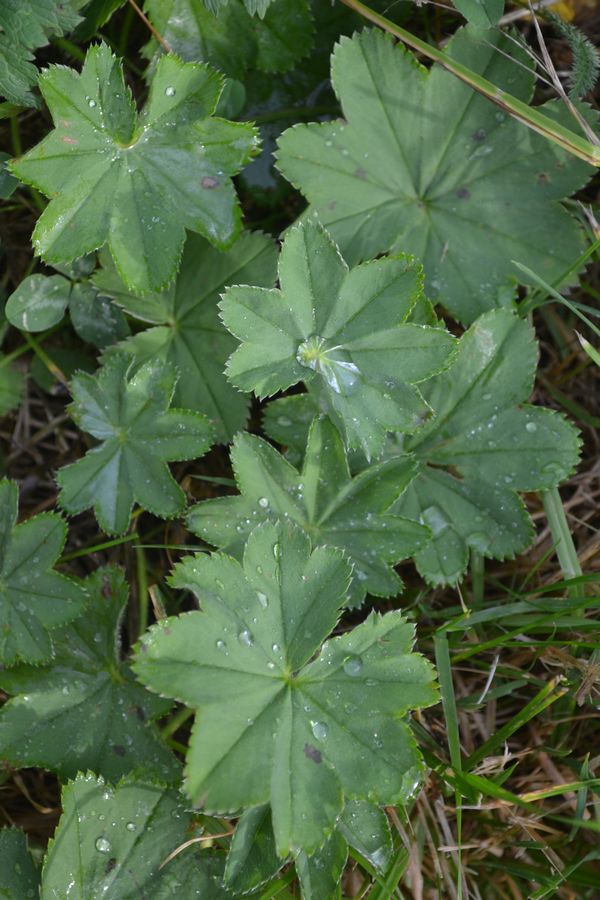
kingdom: Plantae
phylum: Tracheophyta
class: Magnoliopsida
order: Rosales
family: Rosaceae
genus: Alchemilla
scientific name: Alchemilla
